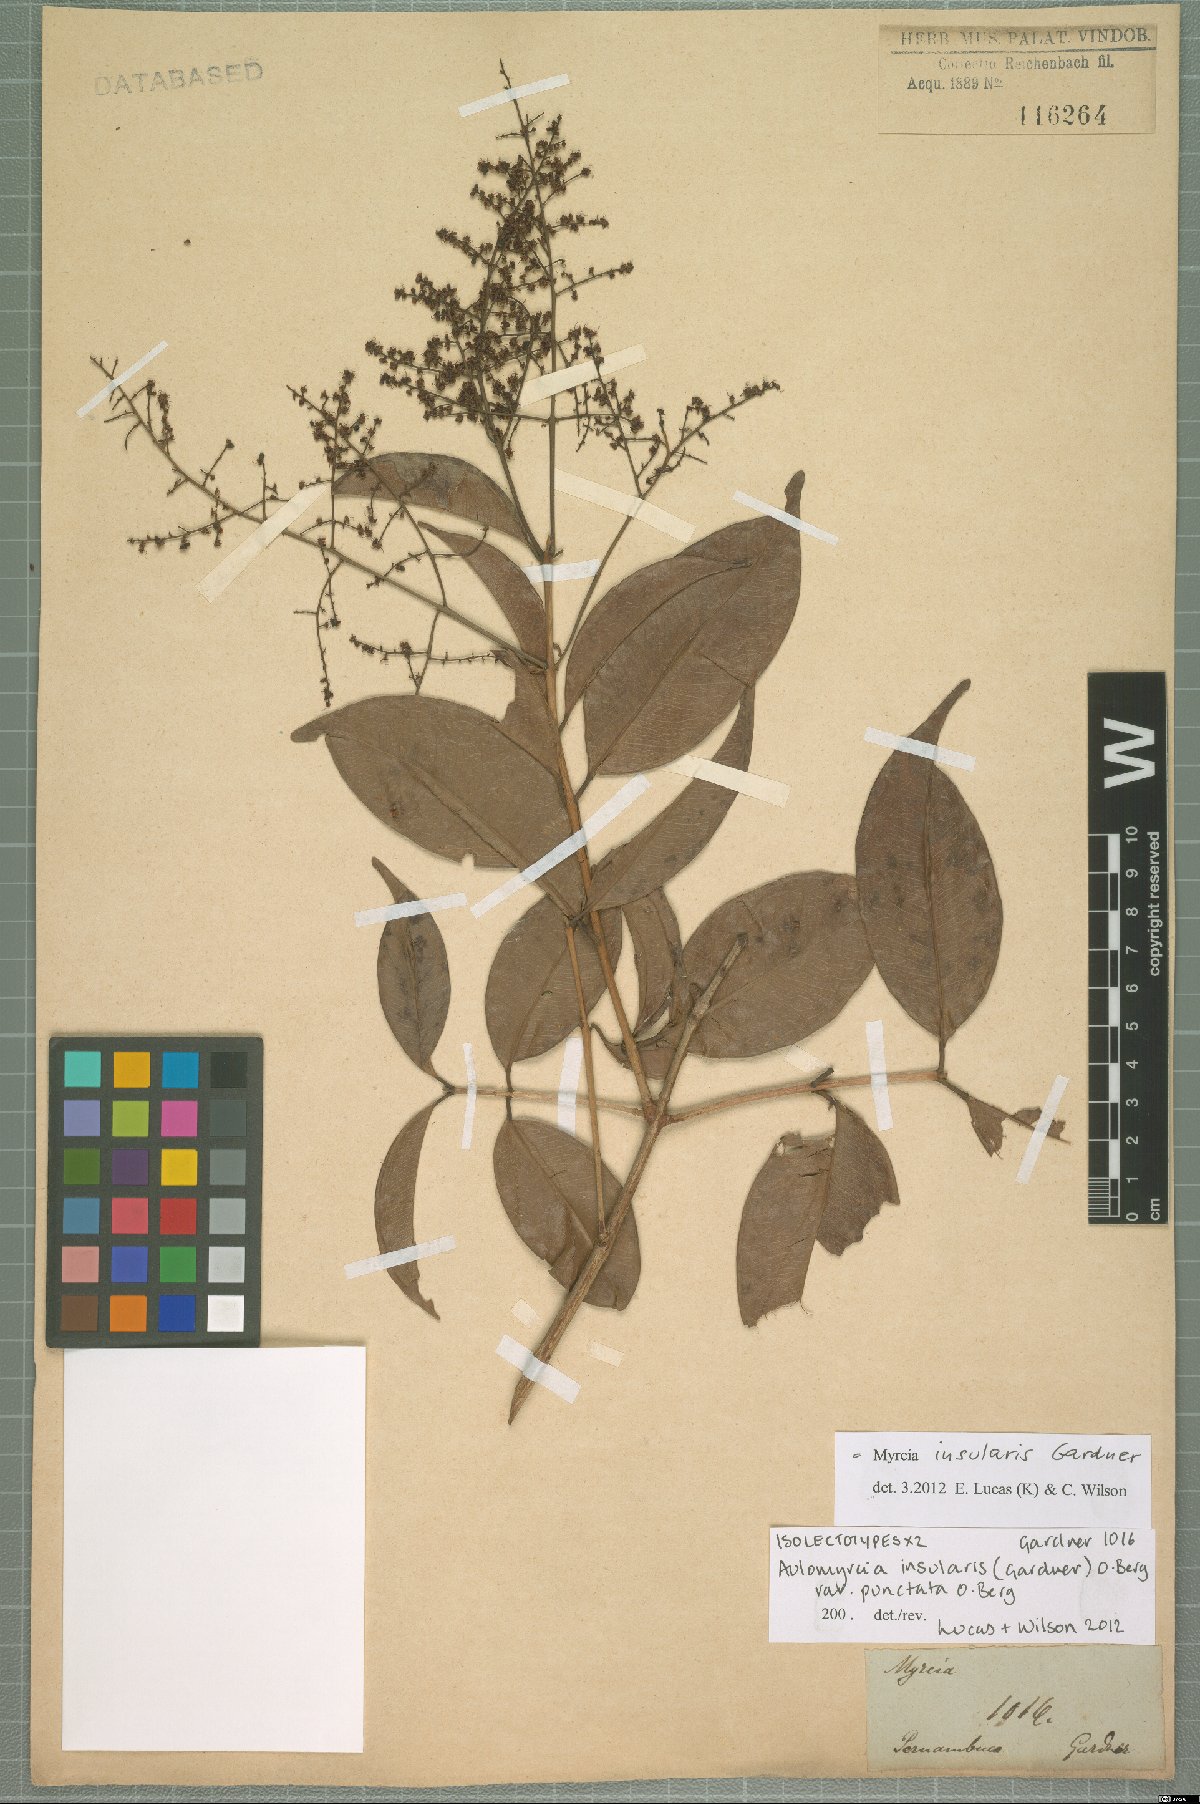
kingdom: Plantae
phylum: Tracheophyta
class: Magnoliopsida
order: Myrtales
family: Myrtaceae
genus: Myrcia
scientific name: Myrcia insularis
